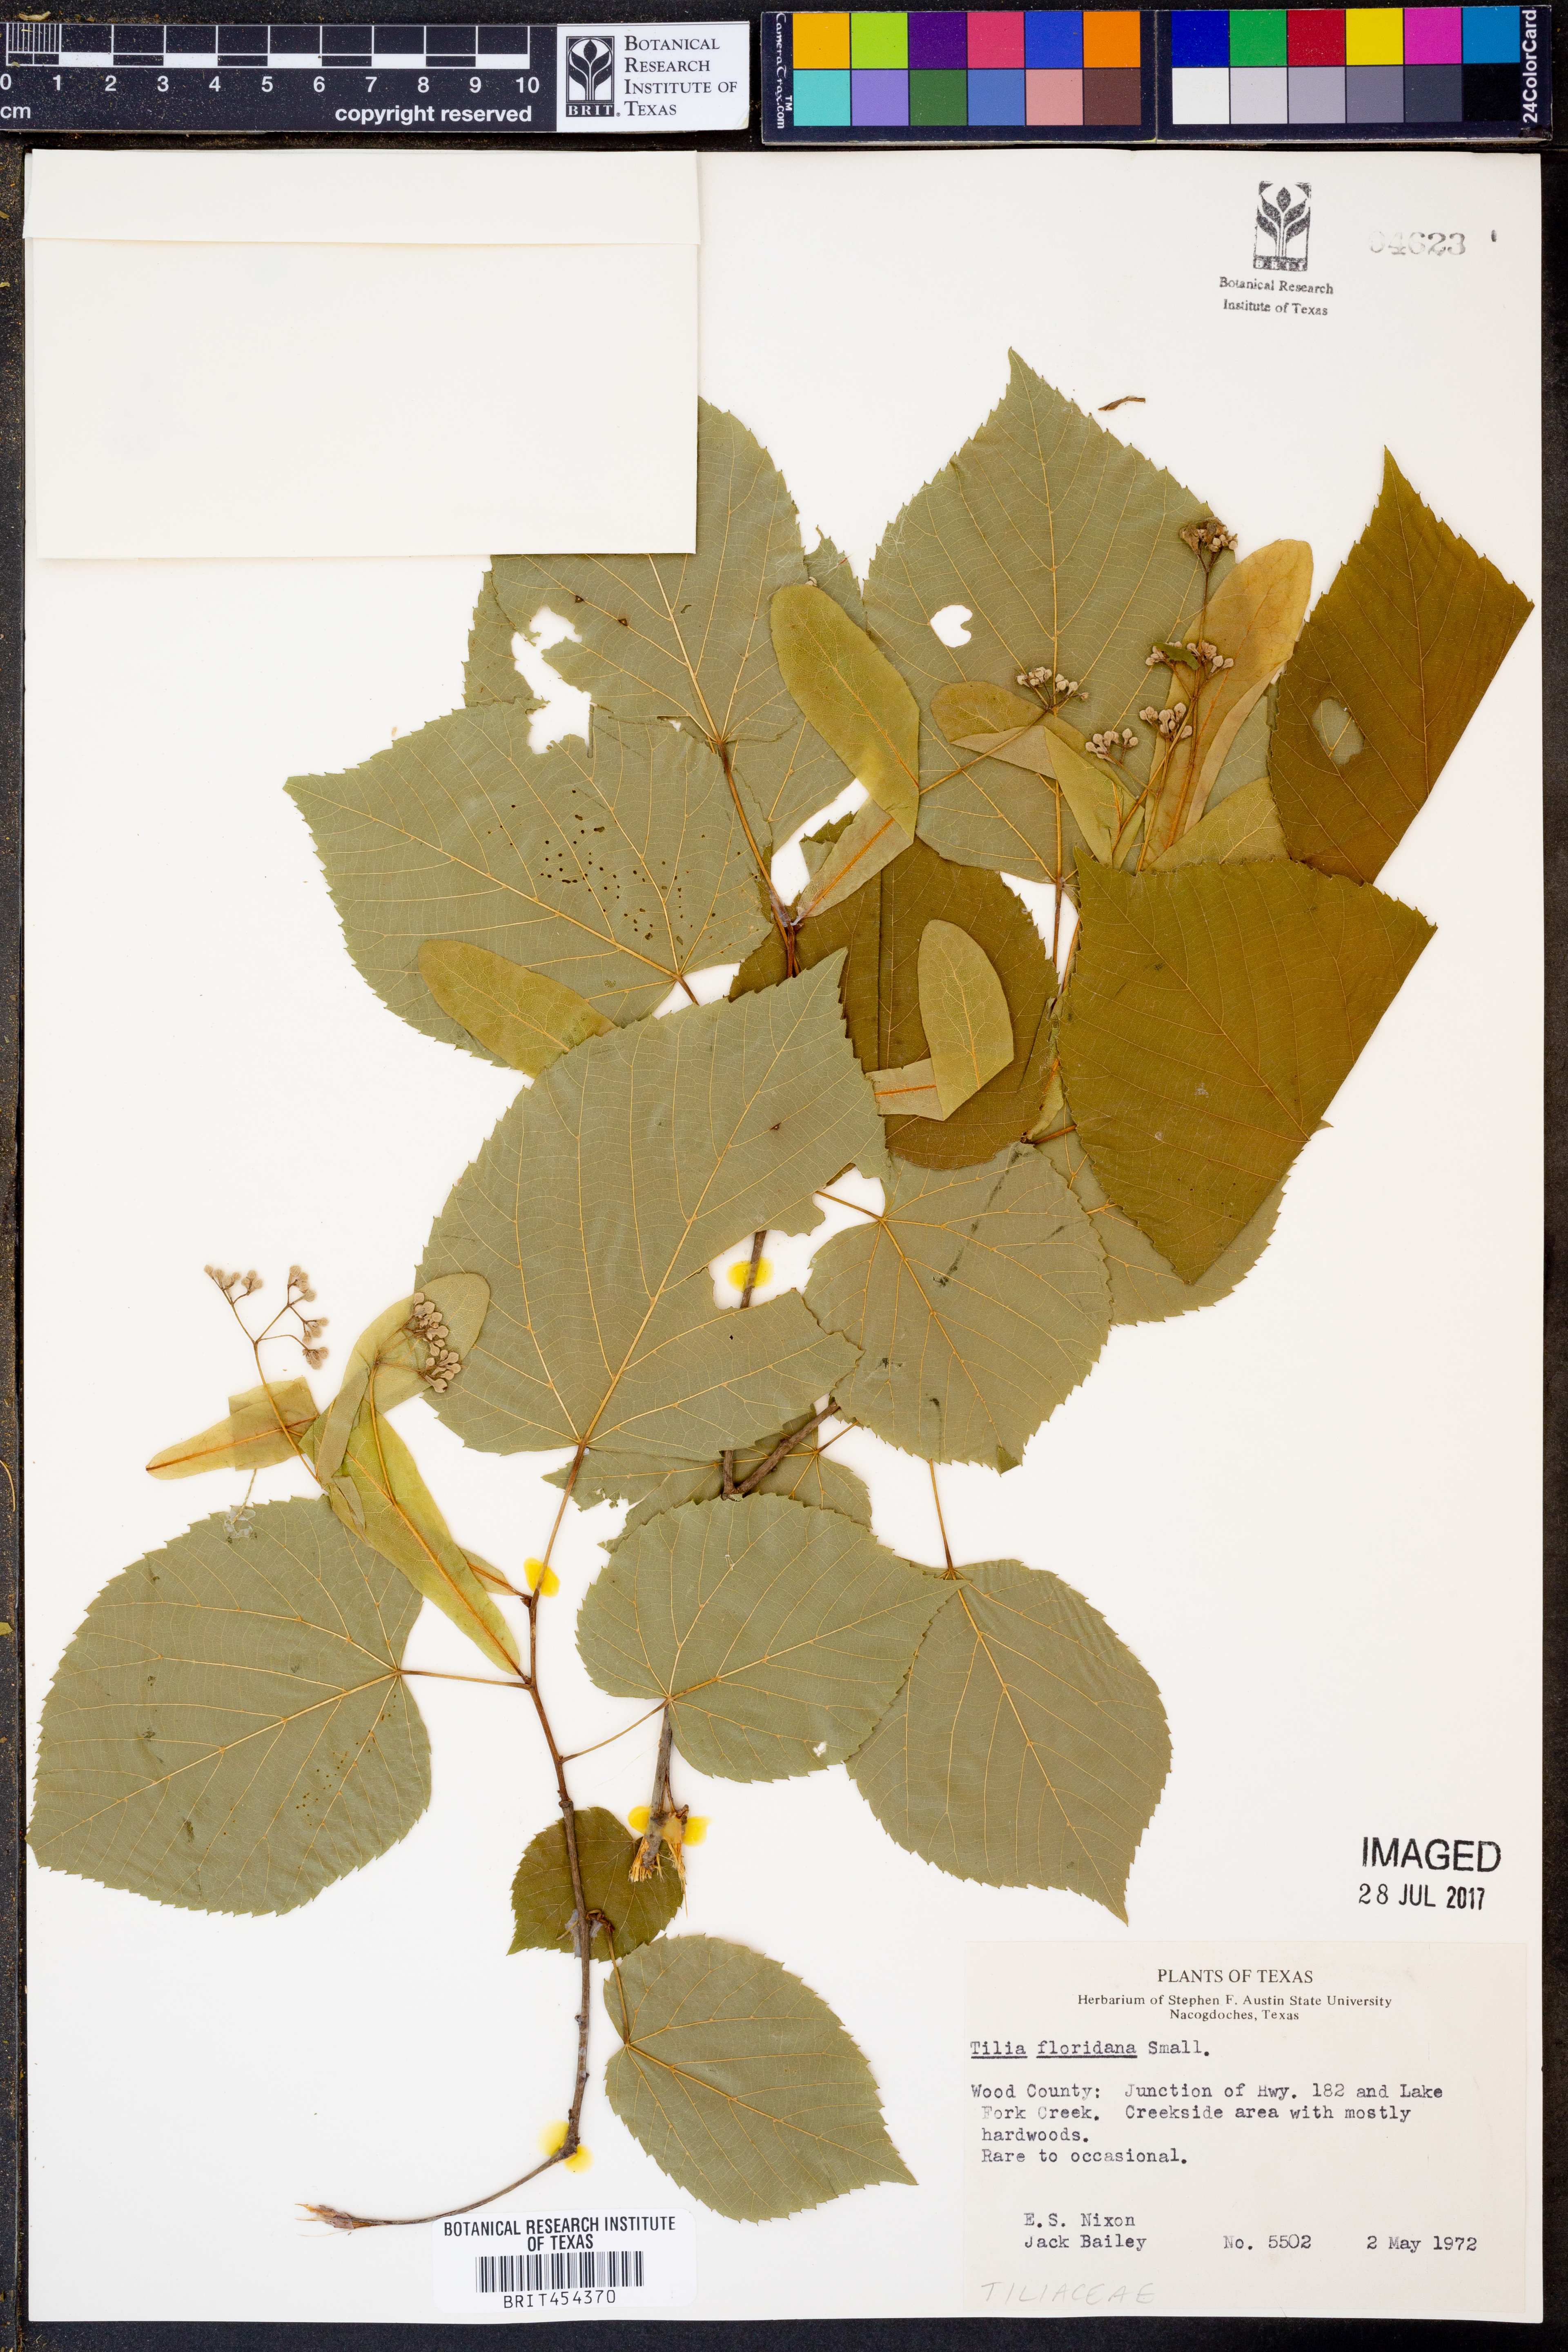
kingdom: Plantae
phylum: Tracheophyta
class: Magnoliopsida
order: Malvales
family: Malvaceae
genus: Tilia
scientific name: Tilia americana
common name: Basswood
